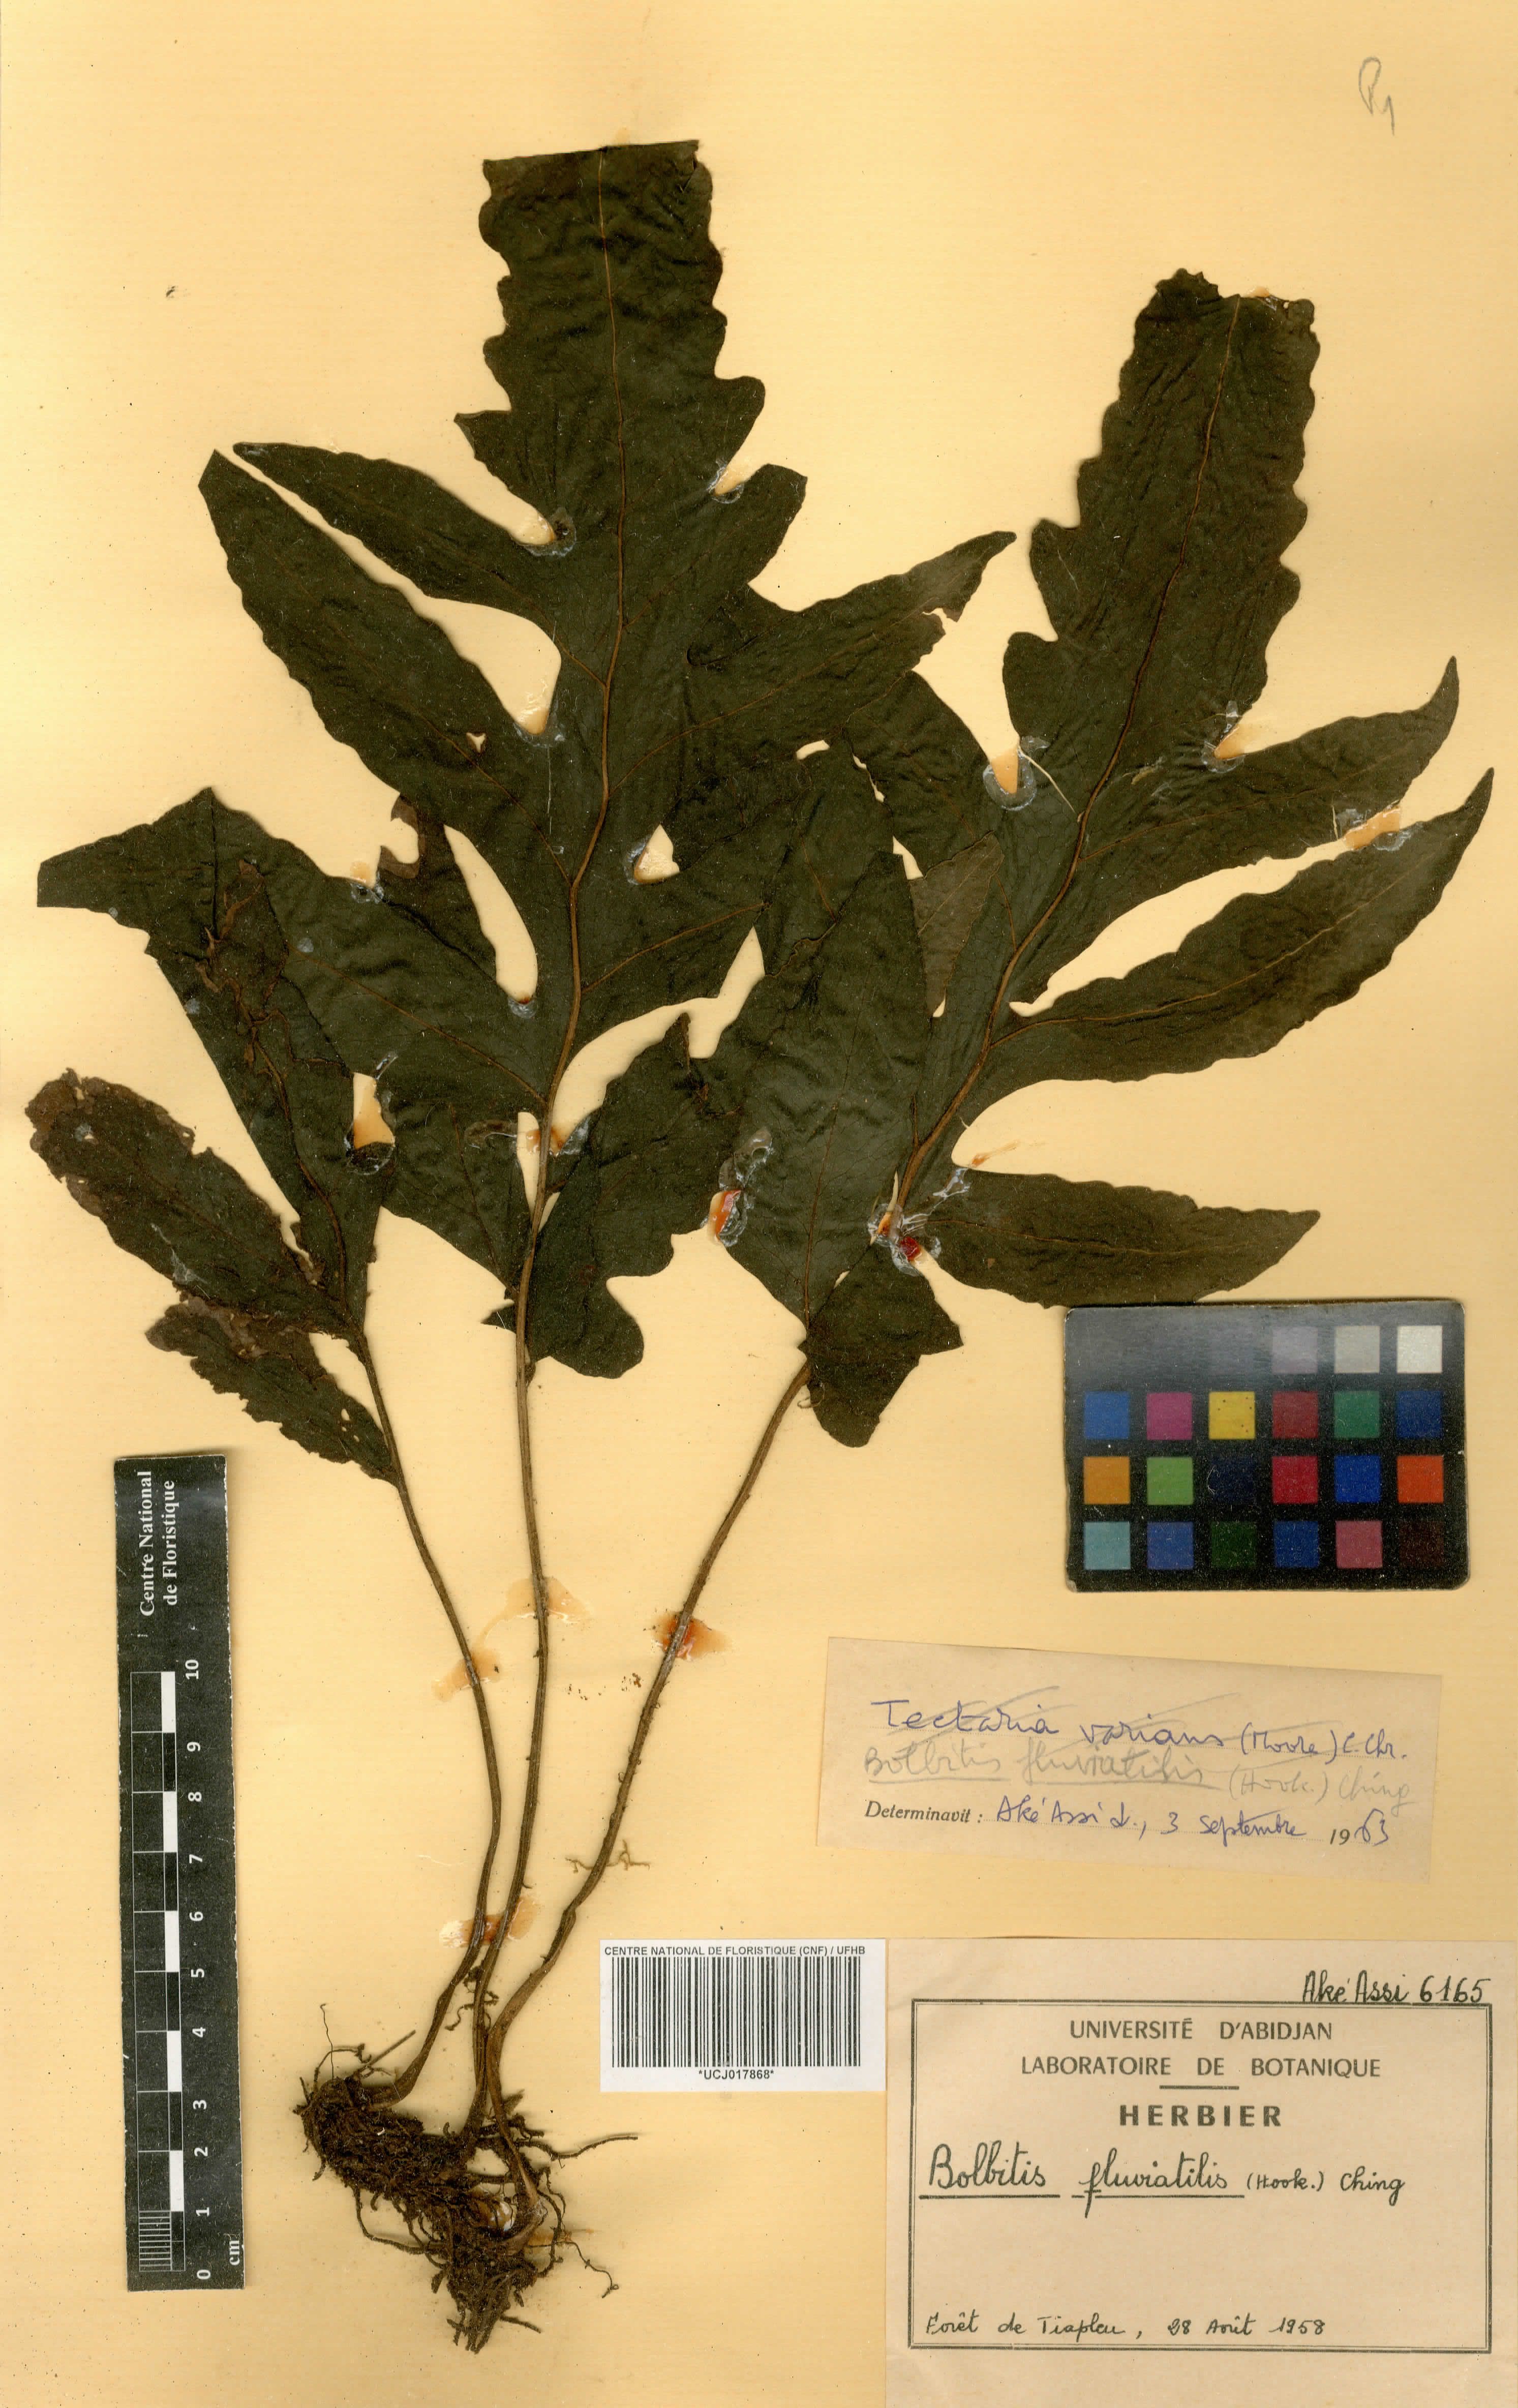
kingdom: Plantae
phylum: Tracheophyta
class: Polypodiopsida
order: Polypodiales
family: Dryopteridaceae
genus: Bolbitis
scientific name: Bolbitis fluviatilis
